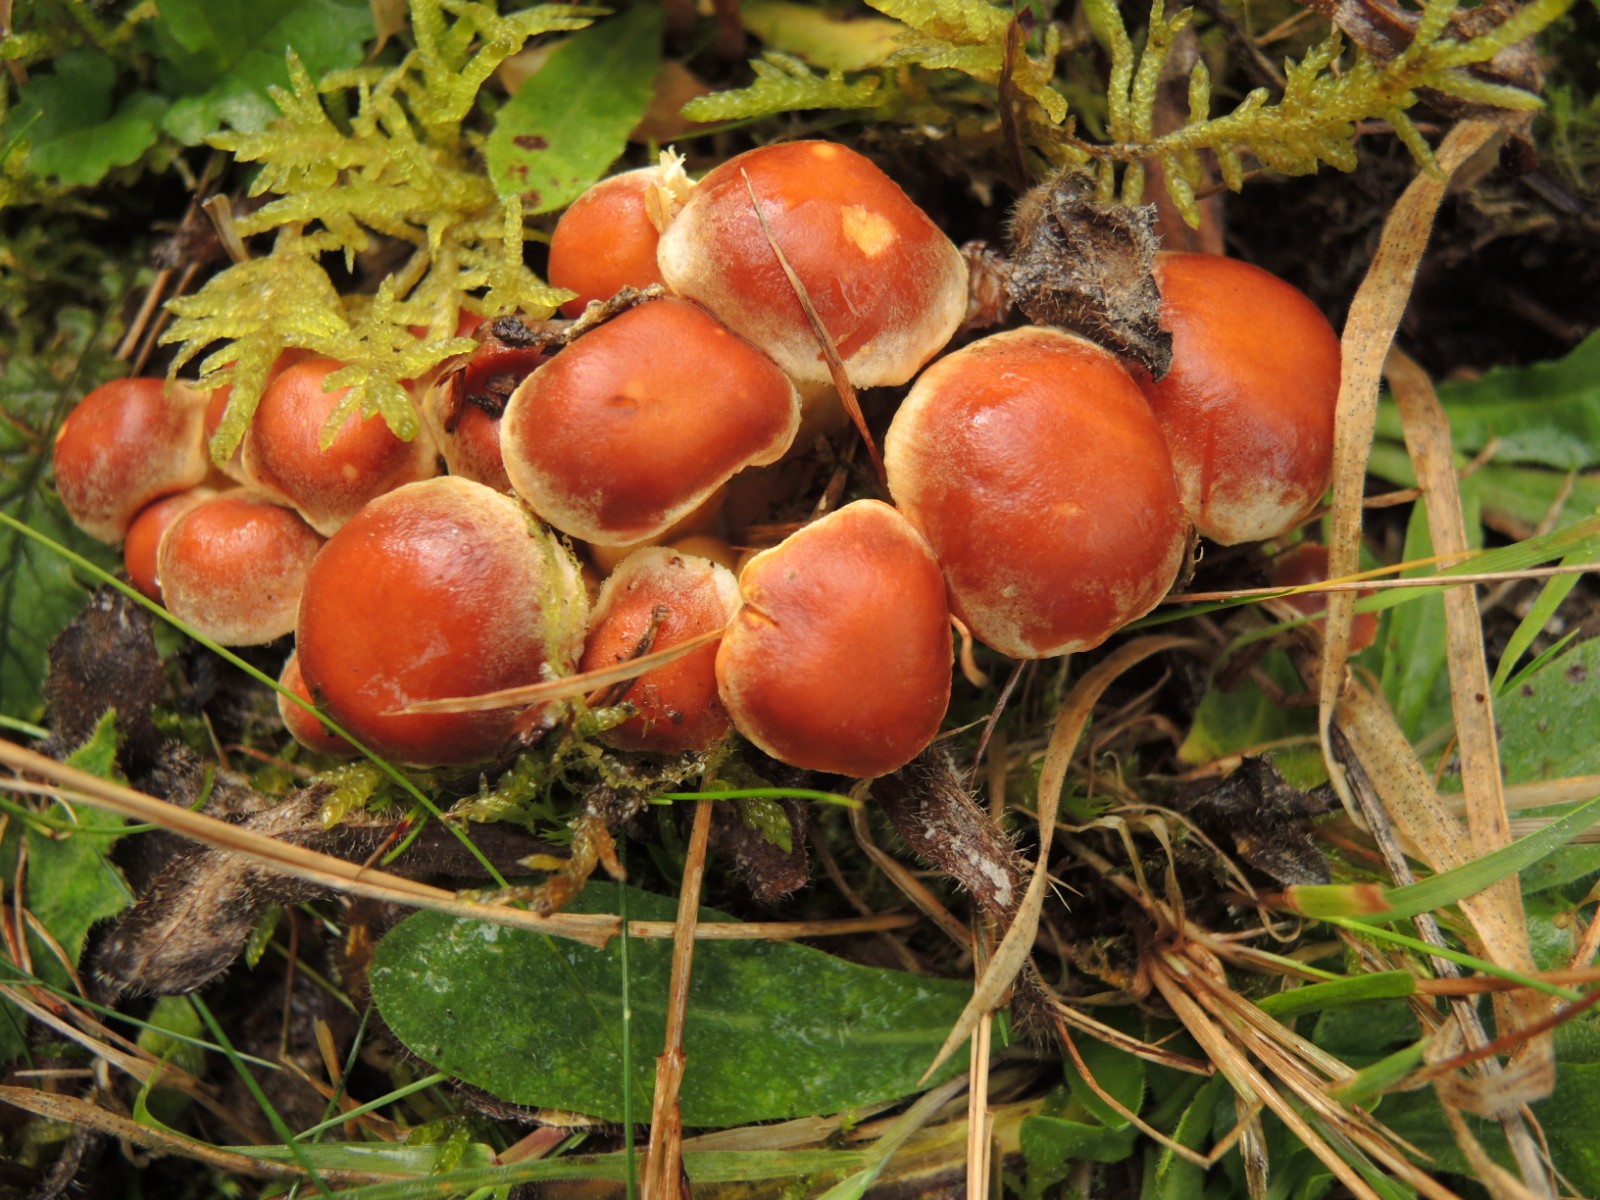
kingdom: Fungi
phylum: Basidiomycota
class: Agaricomycetes
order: Agaricales
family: Strophariaceae
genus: Hypholoma
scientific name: Hypholoma lateritium
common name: teglrød svovlhat
